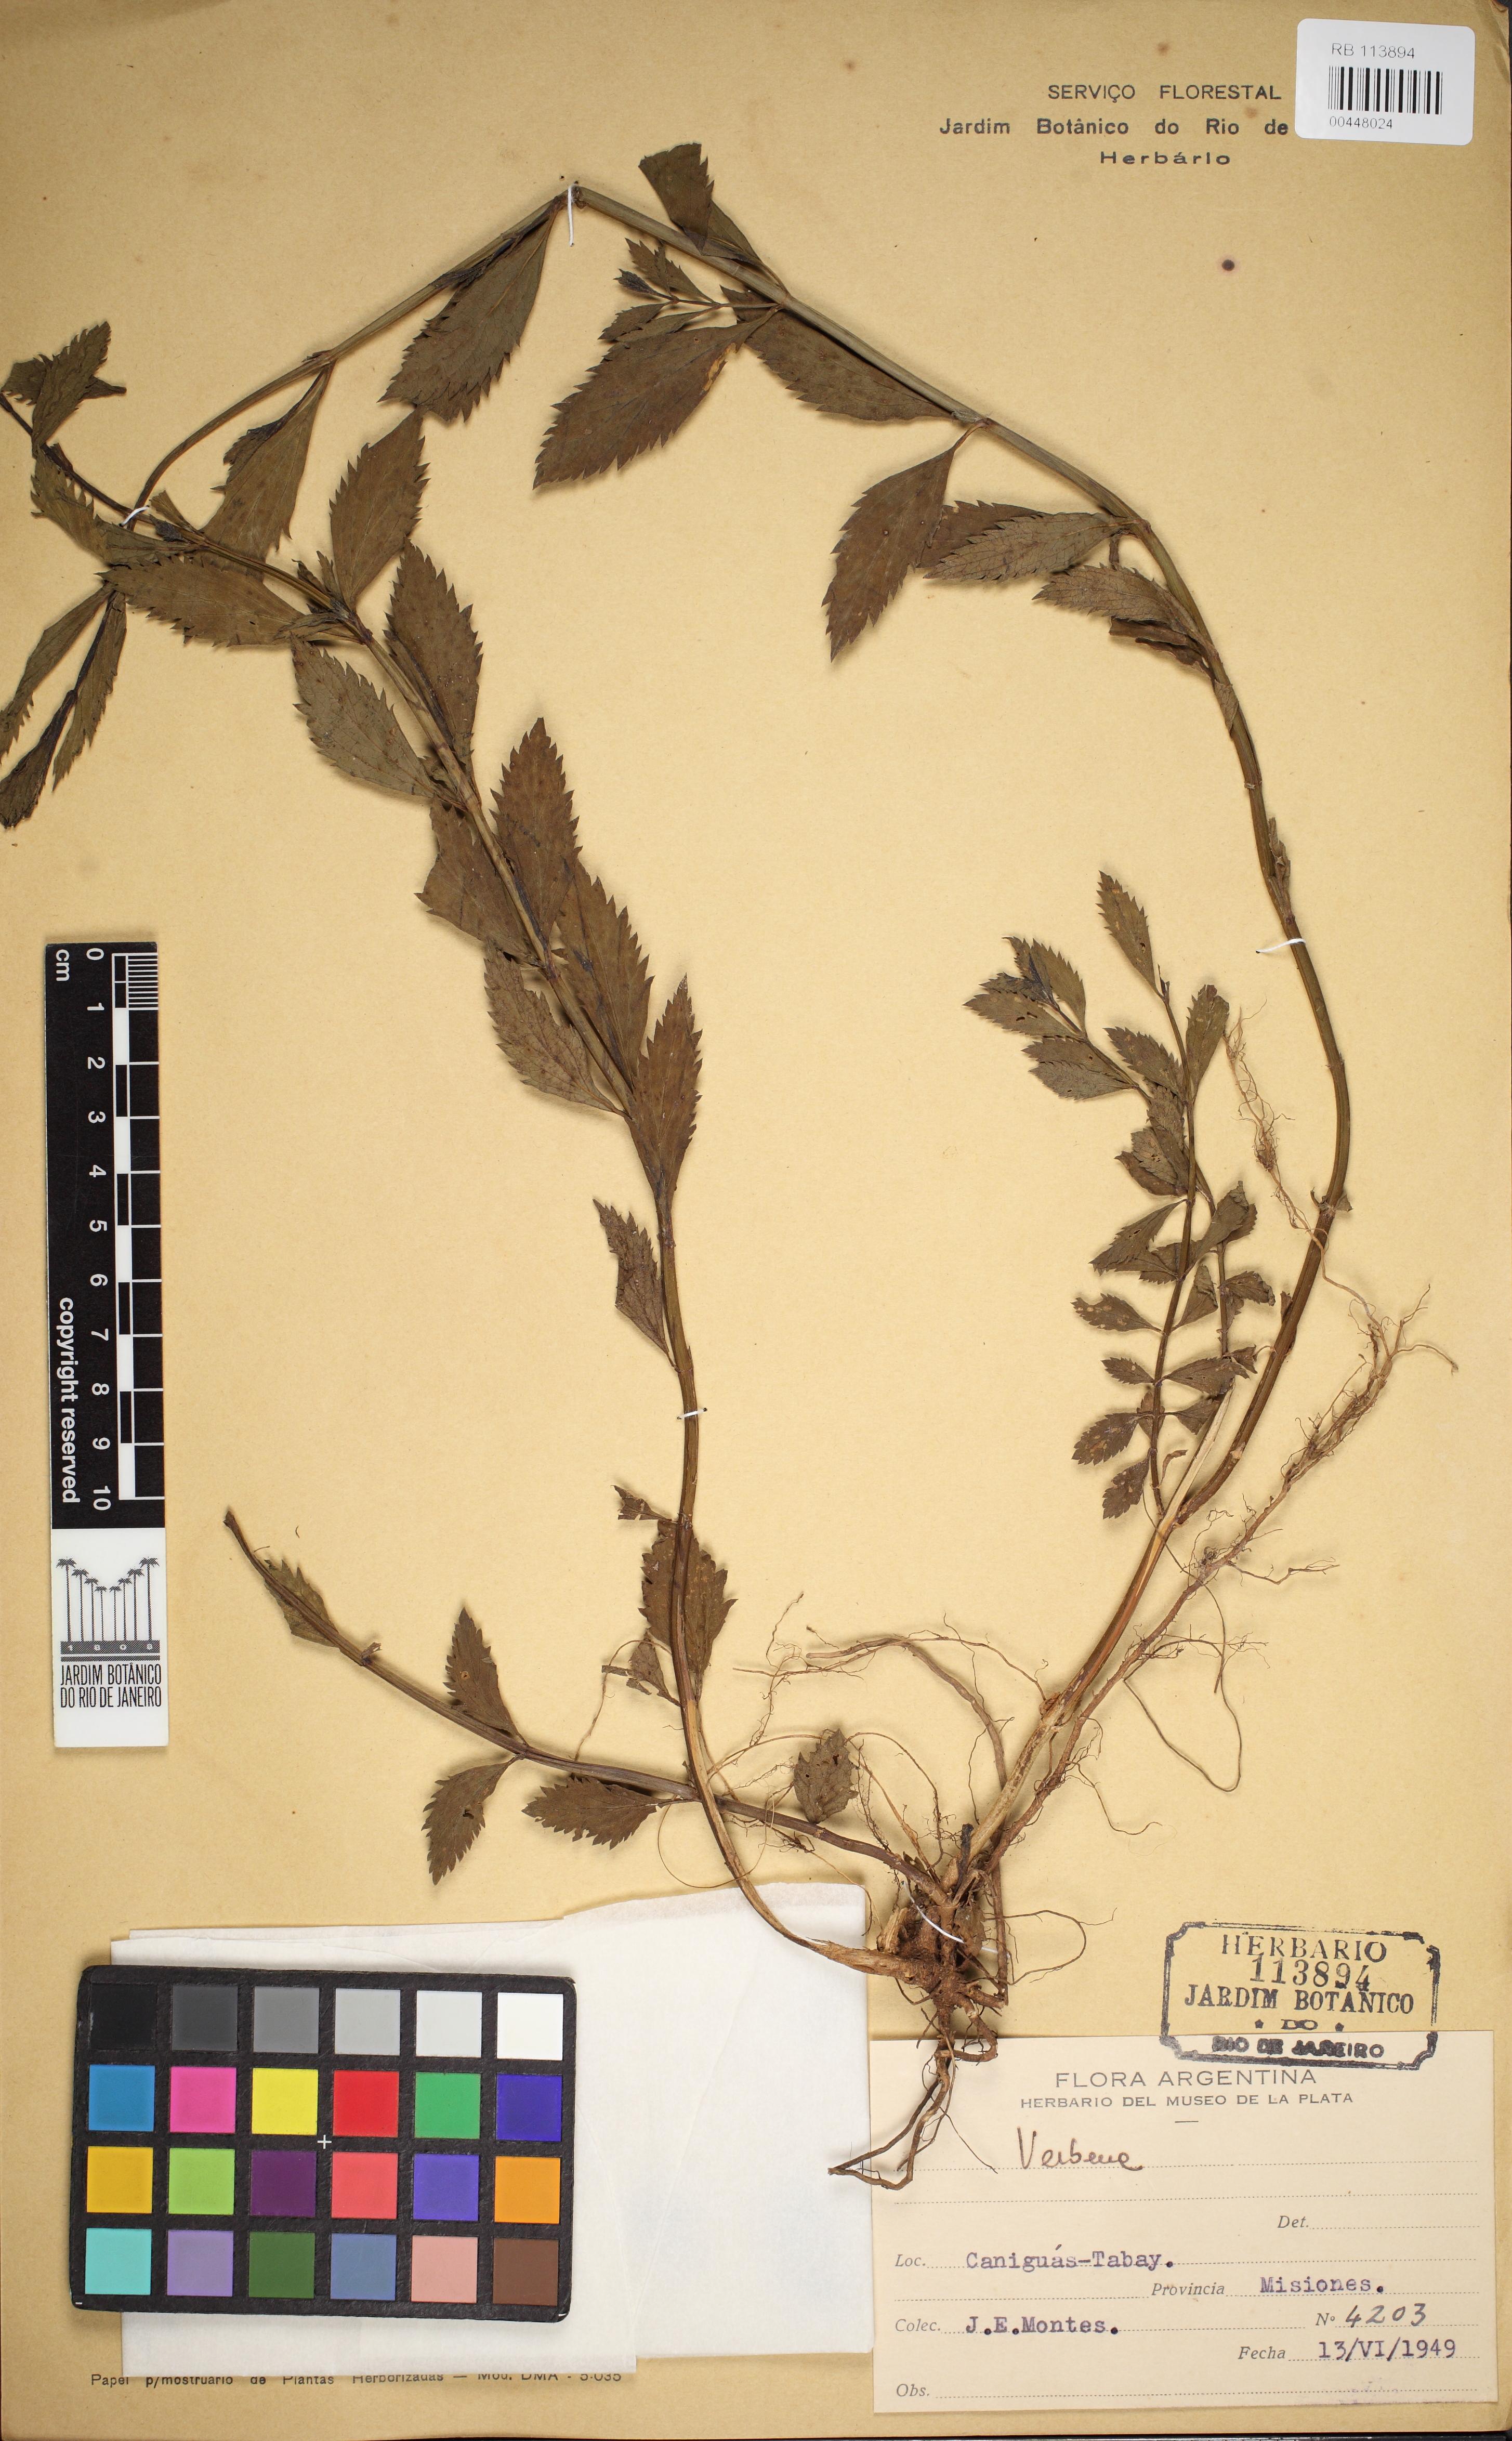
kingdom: Plantae
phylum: Tracheophyta
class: Magnoliopsida
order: Lamiales
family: Verbenaceae
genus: Verbena
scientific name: Verbena
